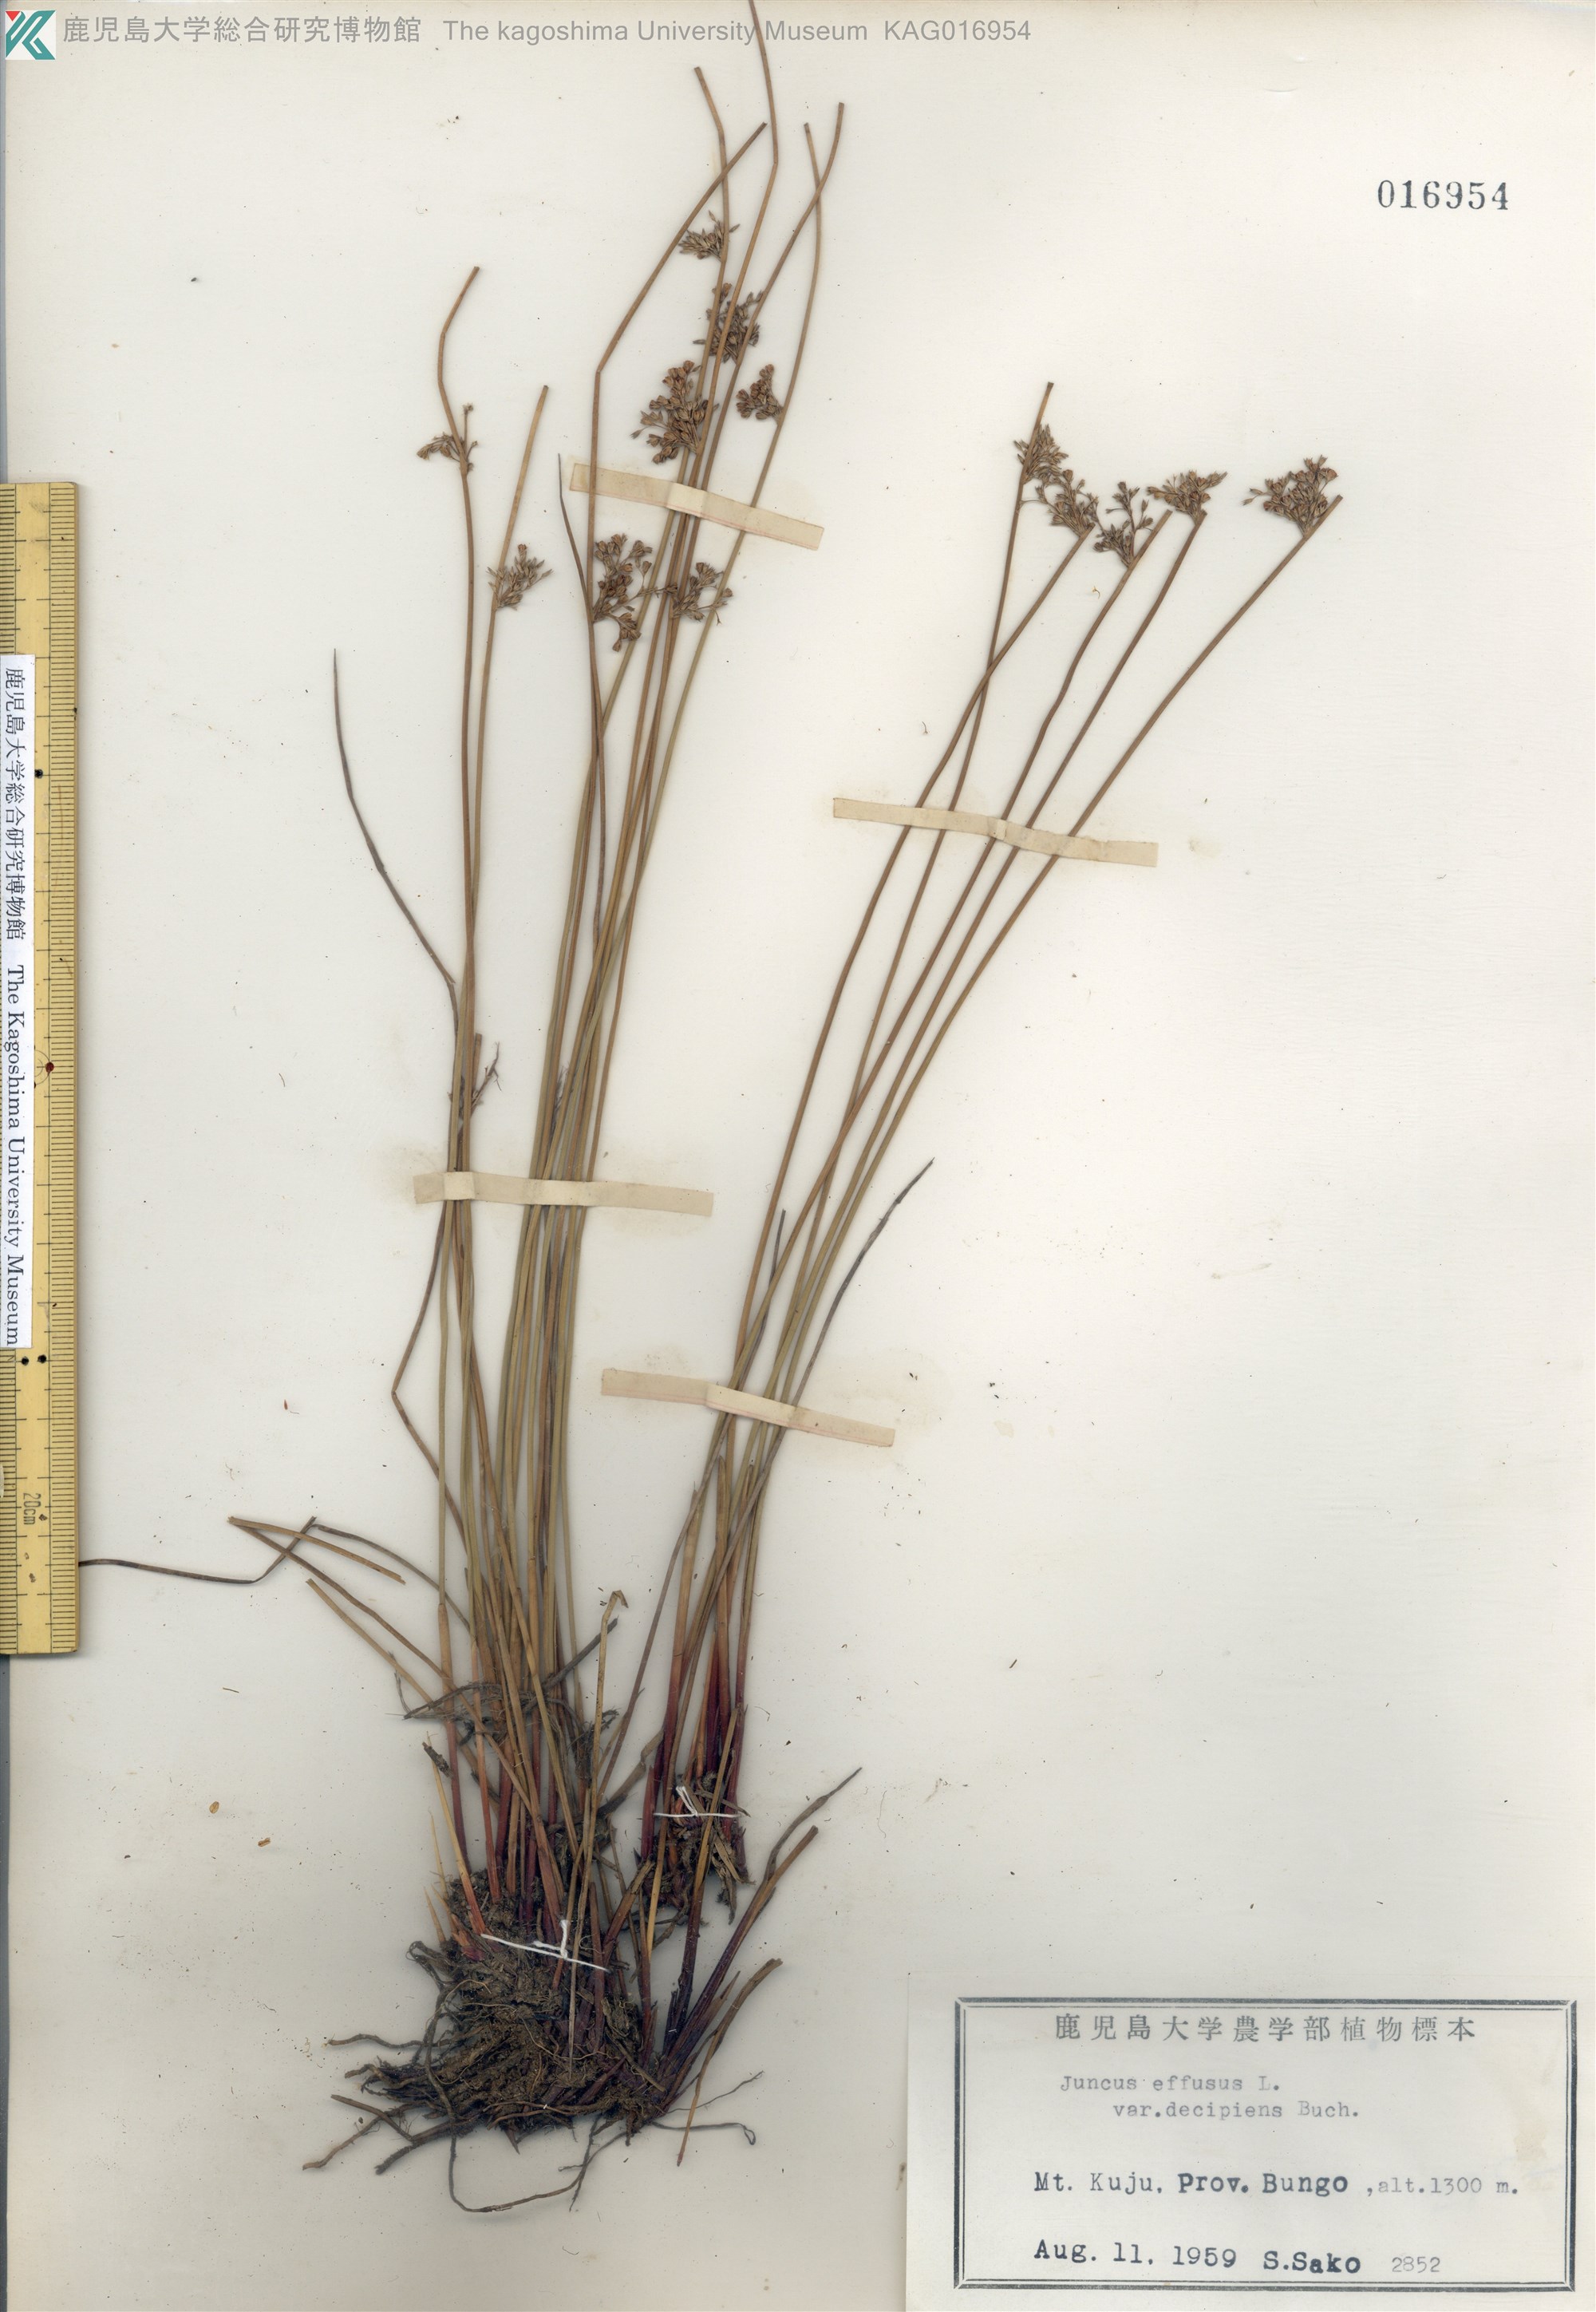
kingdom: Plantae
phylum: Tracheophyta
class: Liliopsida
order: Poales
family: Juncaceae
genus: Juncus
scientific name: Juncus decipiens
